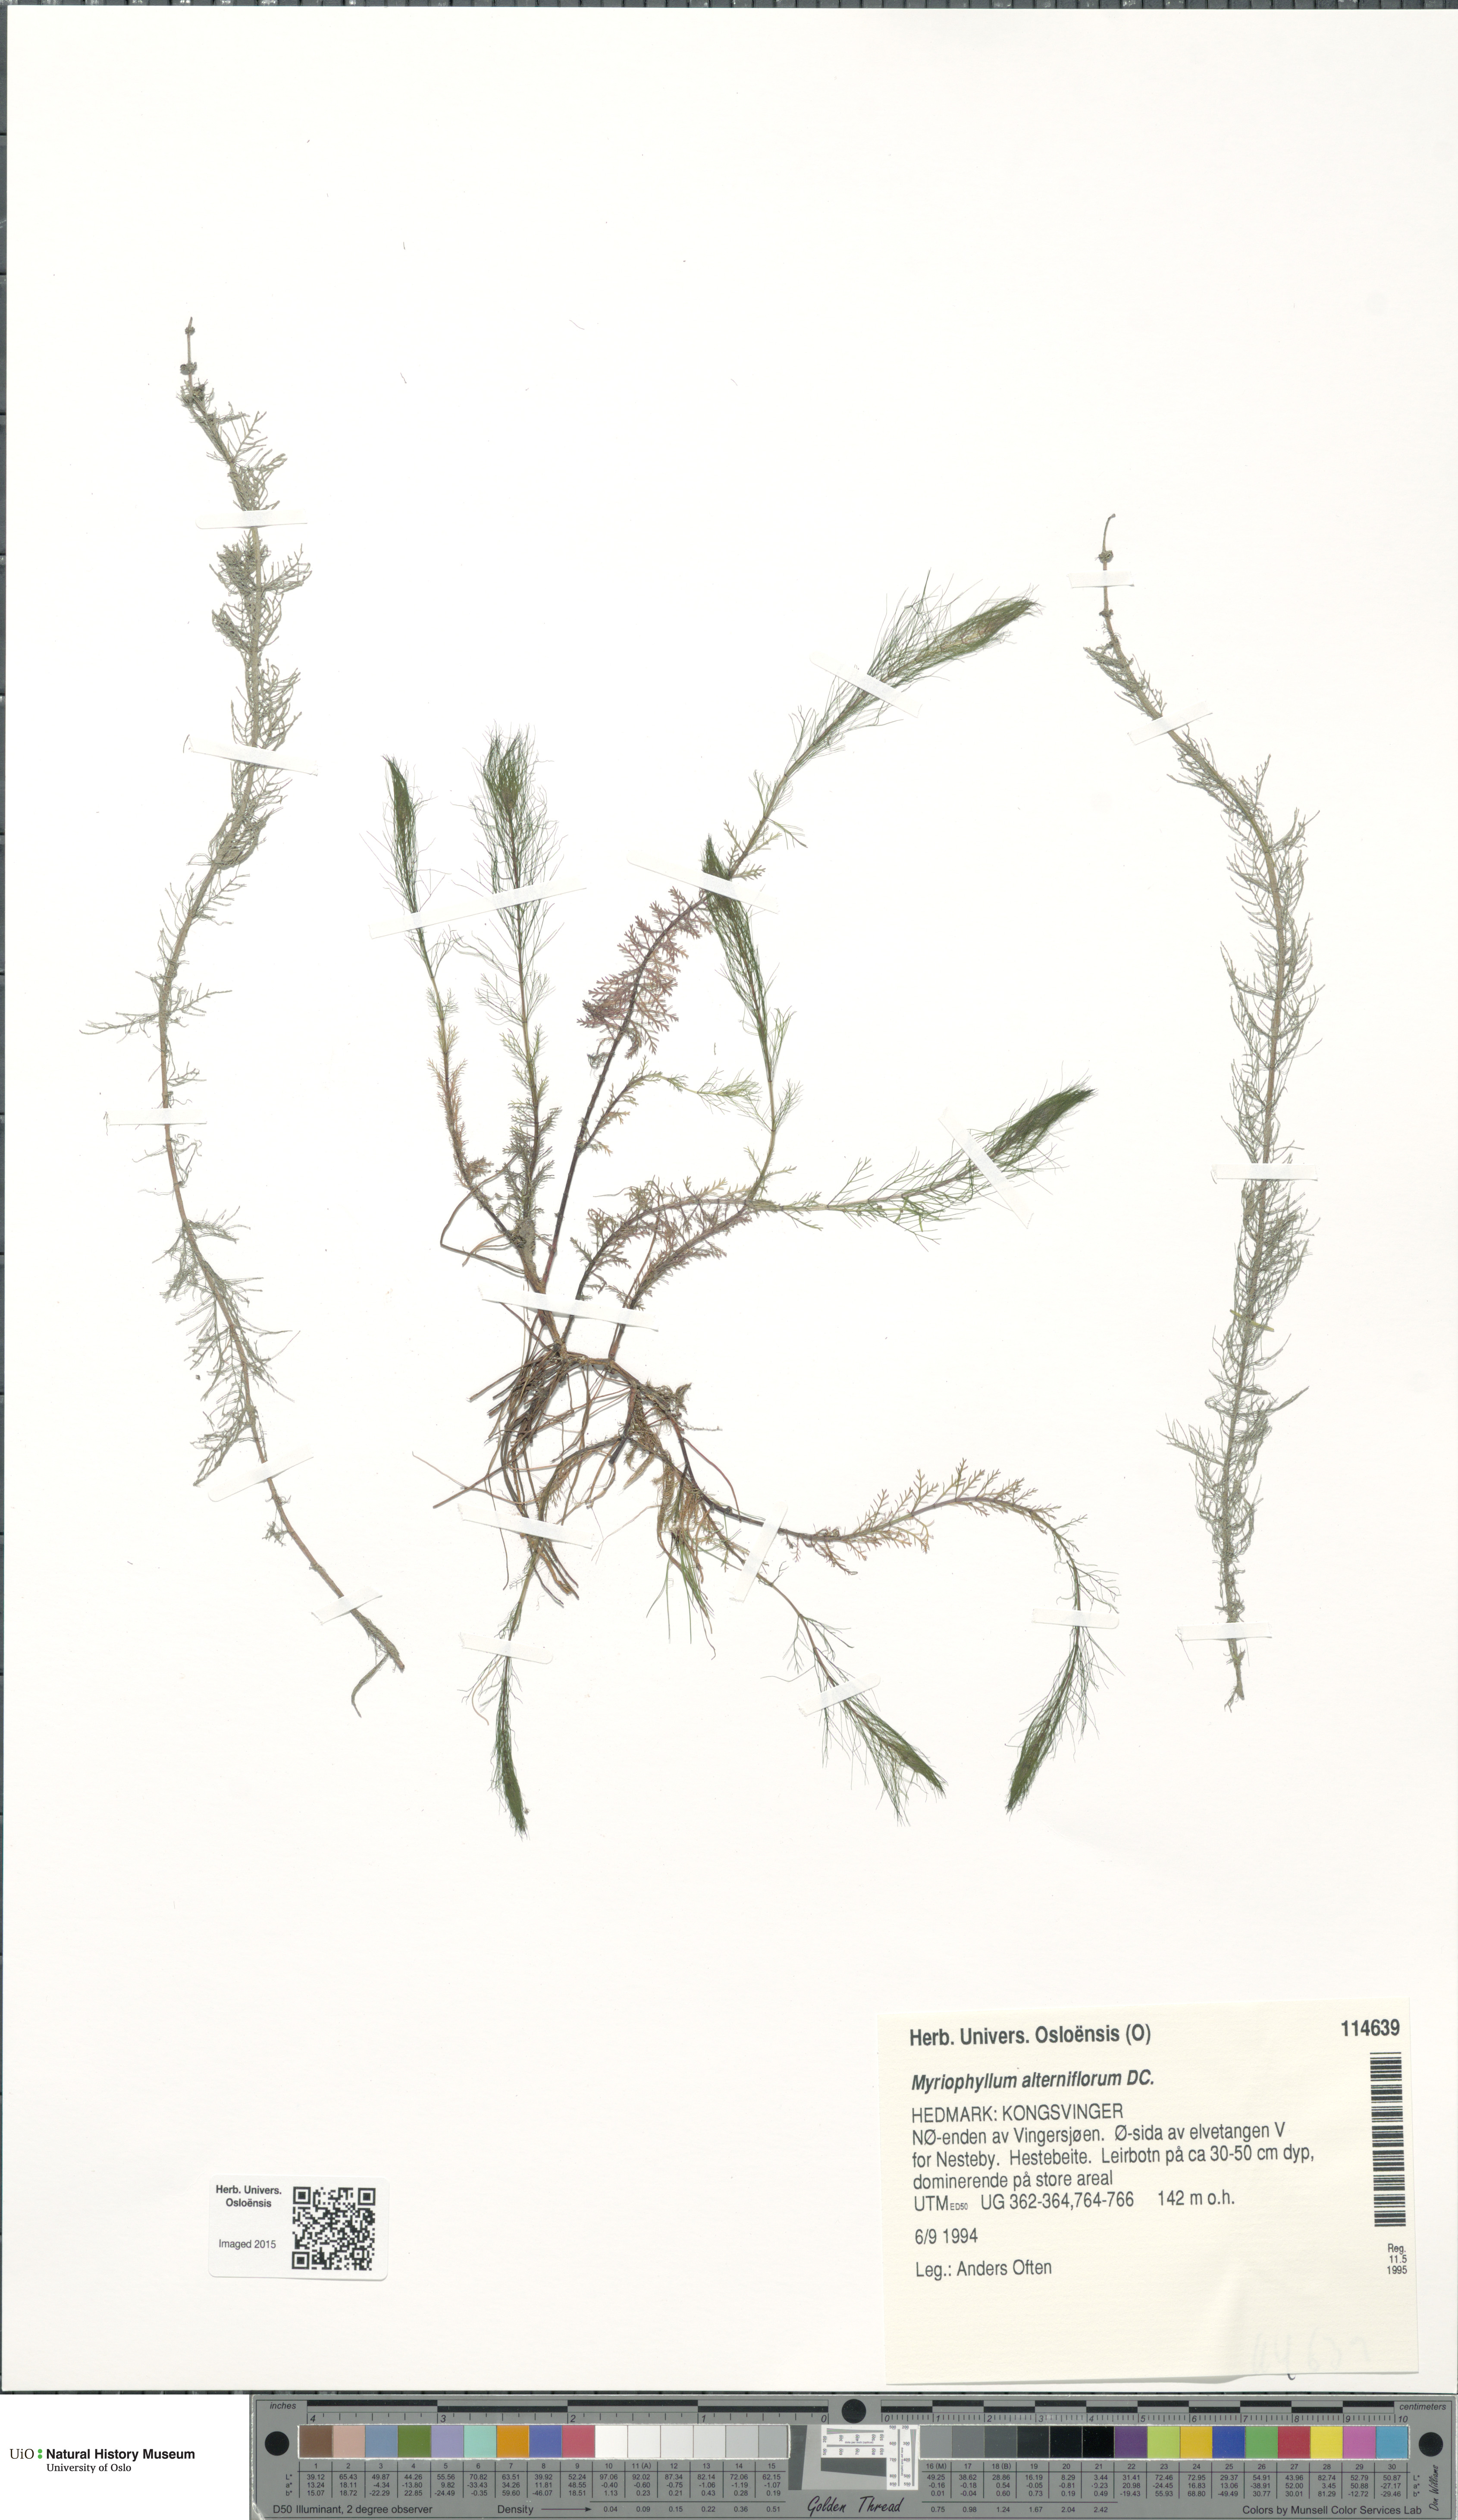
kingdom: Plantae
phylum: Tracheophyta
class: Magnoliopsida
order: Saxifragales
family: Haloragaceae
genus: Myriophyllum
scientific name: Myriophyllum alterniflorum
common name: Alternate water-milfoil
